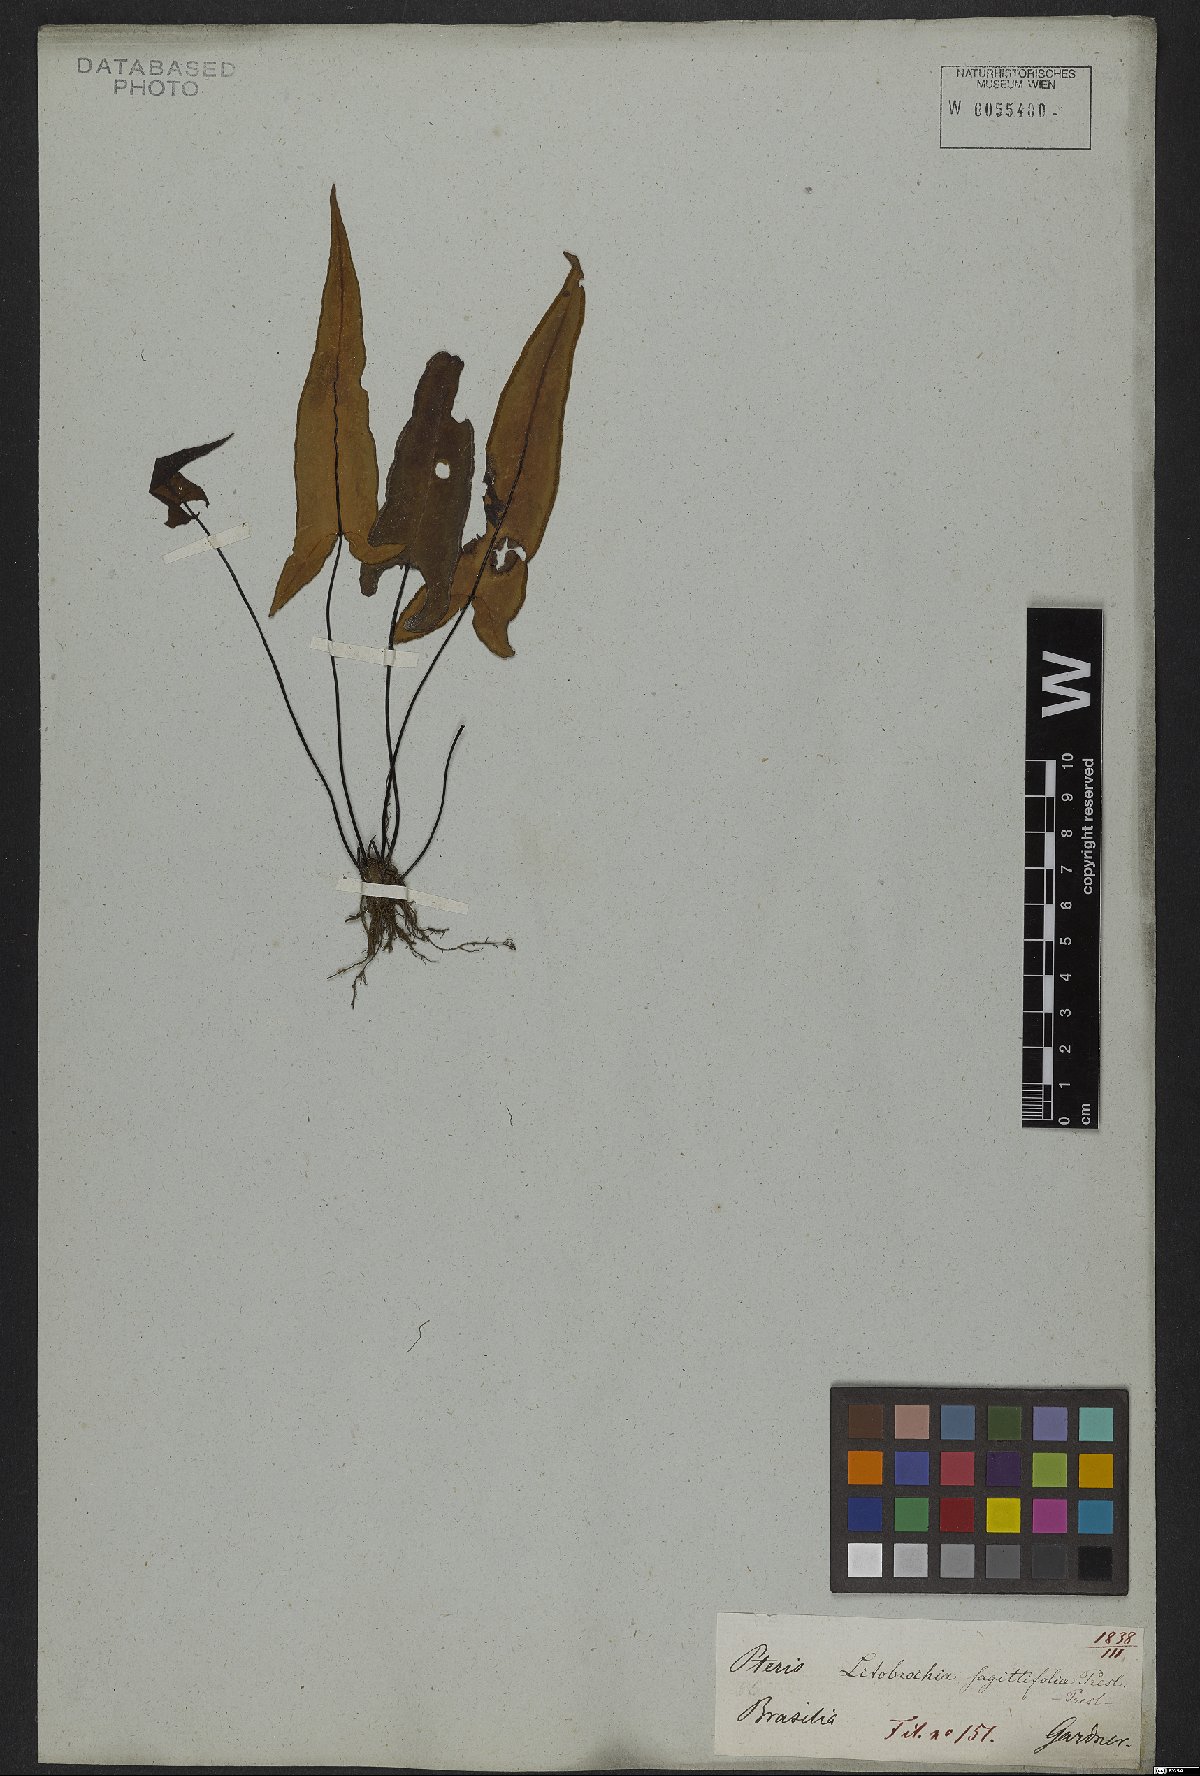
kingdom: Plantae
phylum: Tracheophyta
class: Polypodiopsida
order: Polypodiales
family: Pteridaceae
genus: Doryopteris
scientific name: Doryopteris sagittifolia
